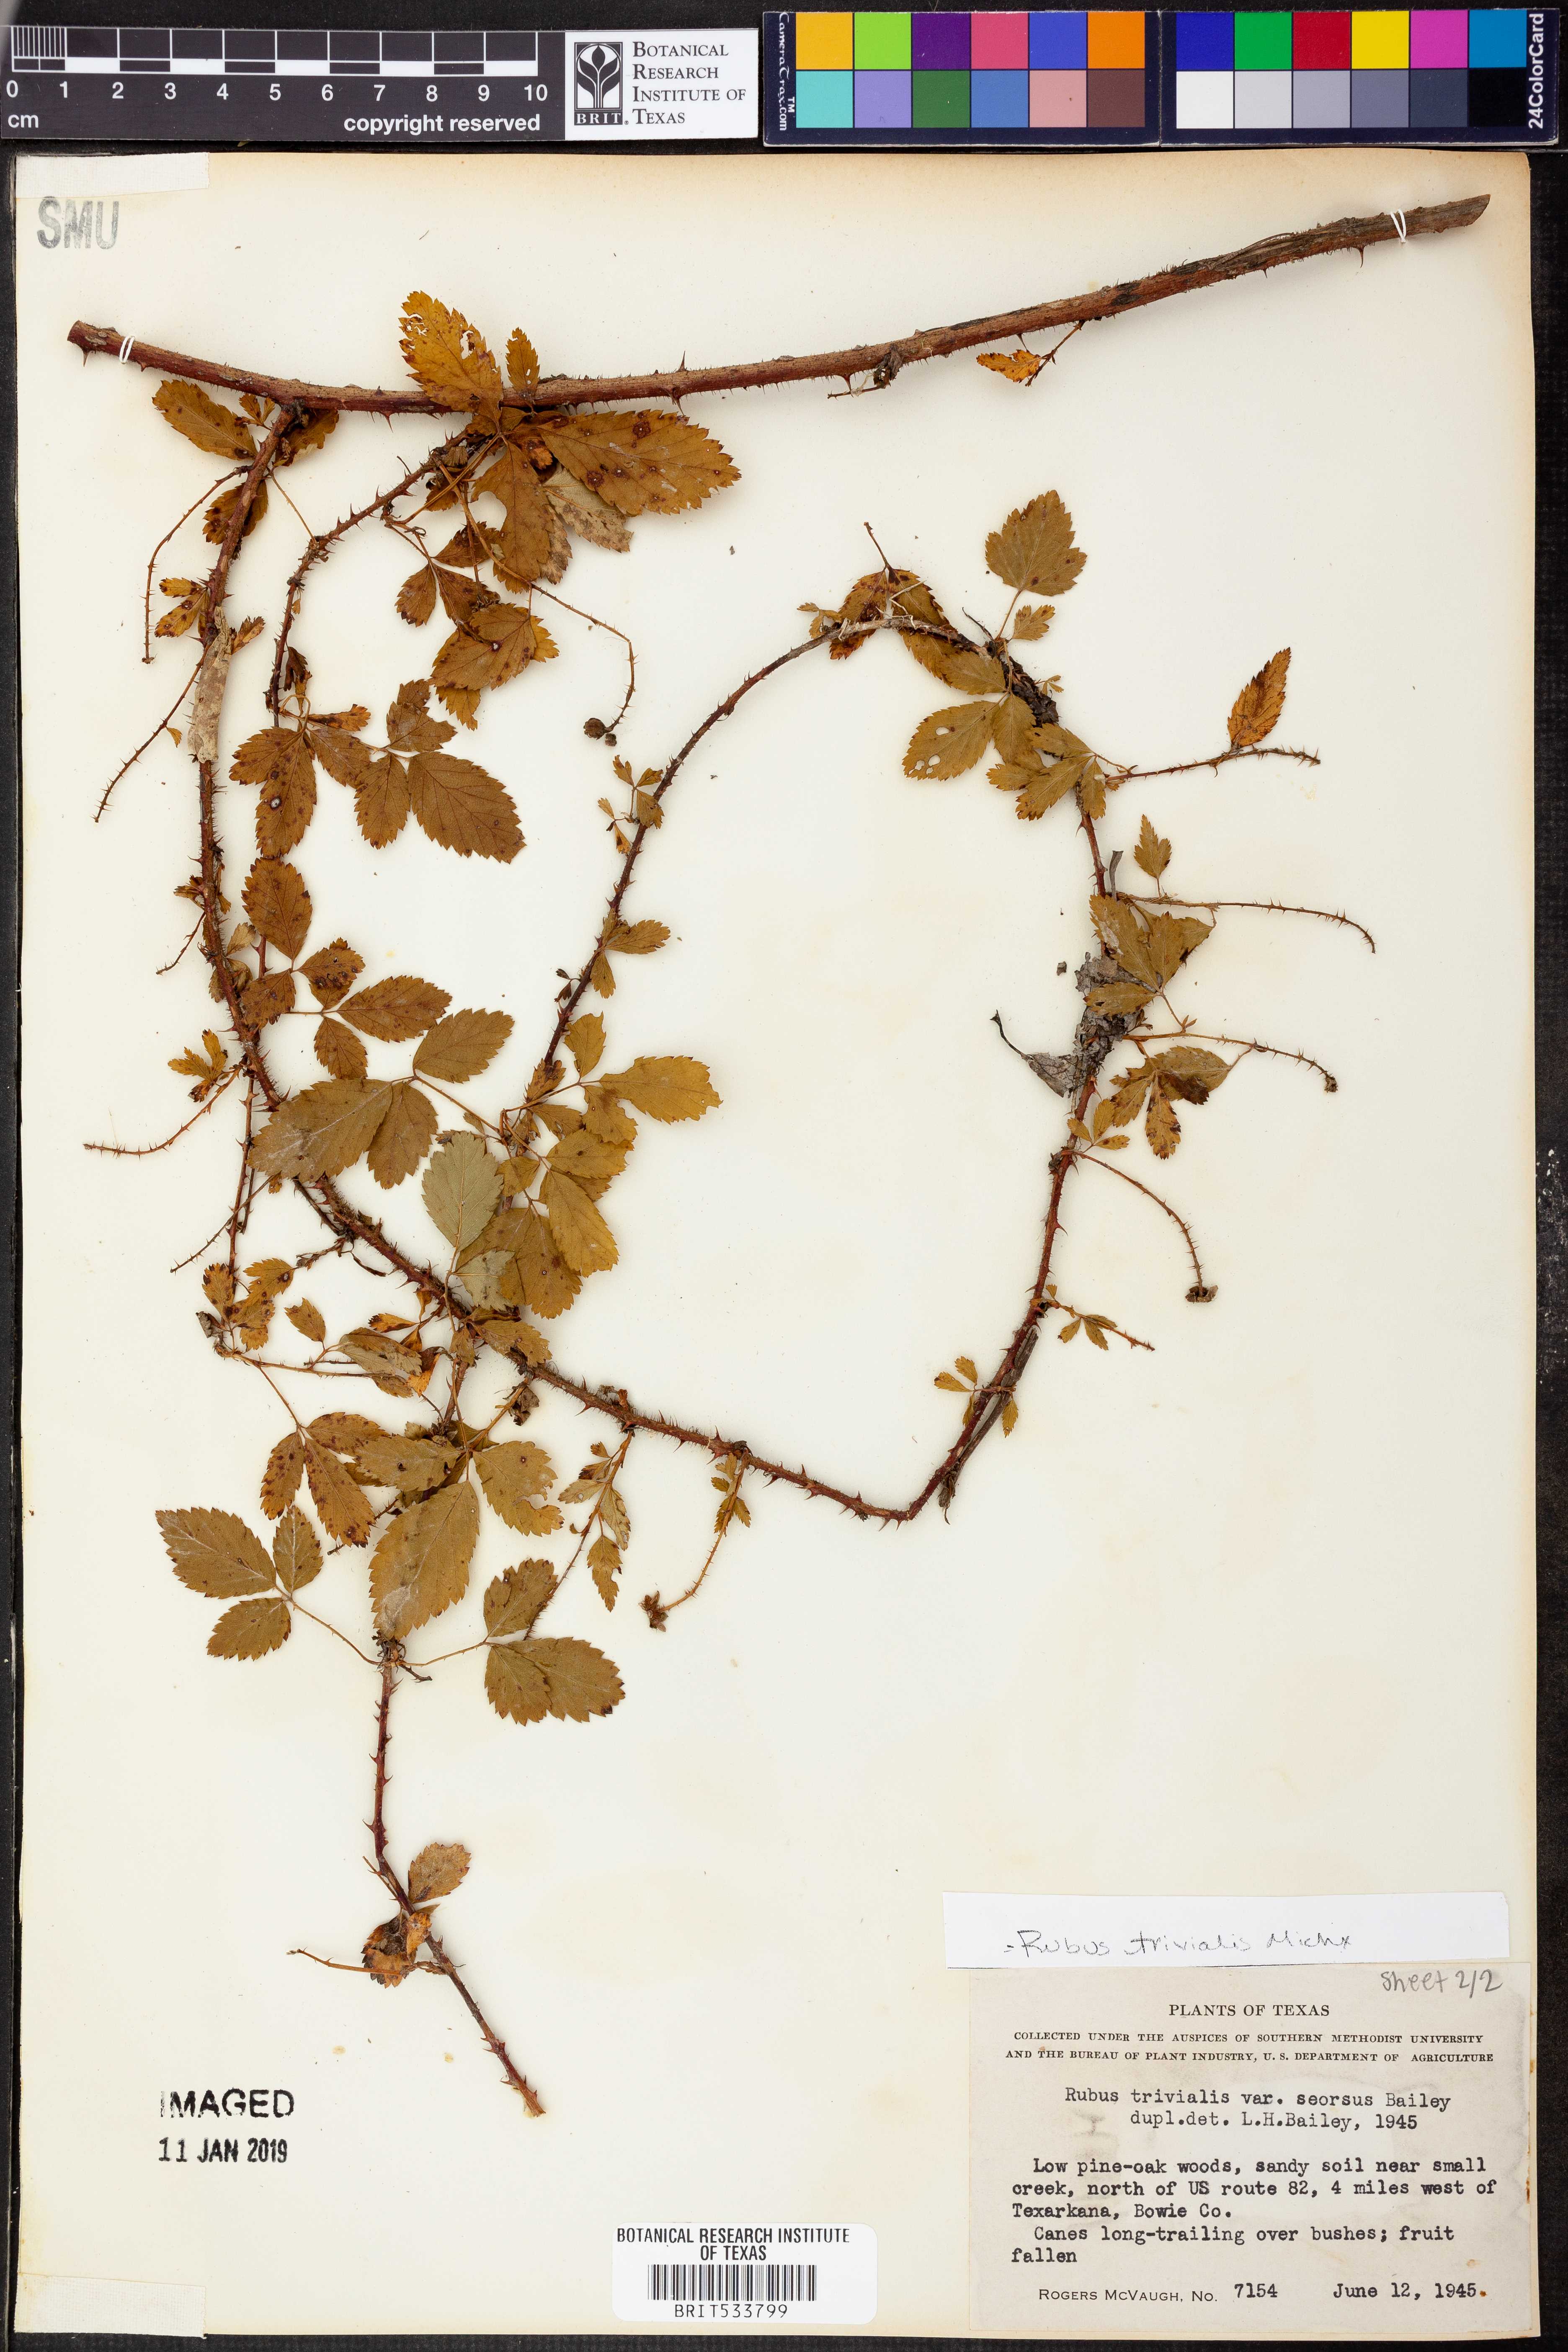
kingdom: Plantae
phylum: Tracheophyta
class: Magnoliopsida
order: Rosales
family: Rosaceae
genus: Rubus
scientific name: Rubus trivialis
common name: Southern dewberry
